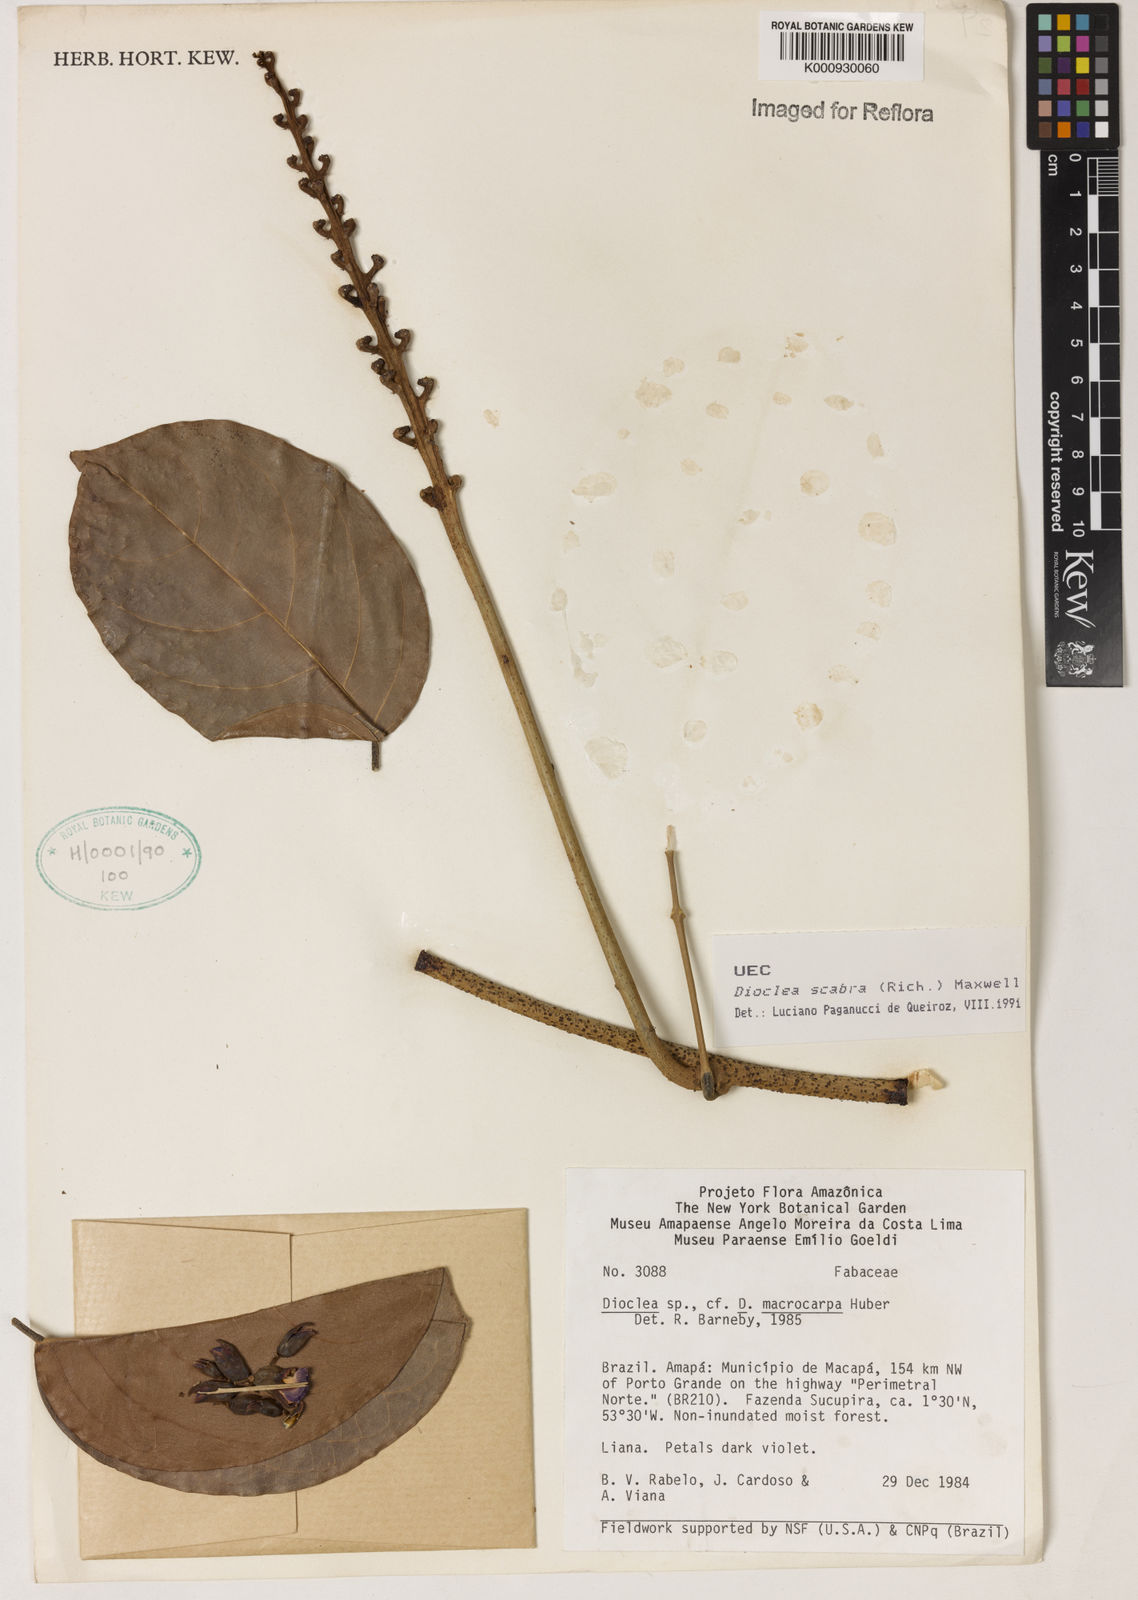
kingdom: Plantae
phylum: Tracheophyta
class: Magnoliopsida
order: Fabales
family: Fabaceae
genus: Macropsychanthus
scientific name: Macropsychanthus scaber
